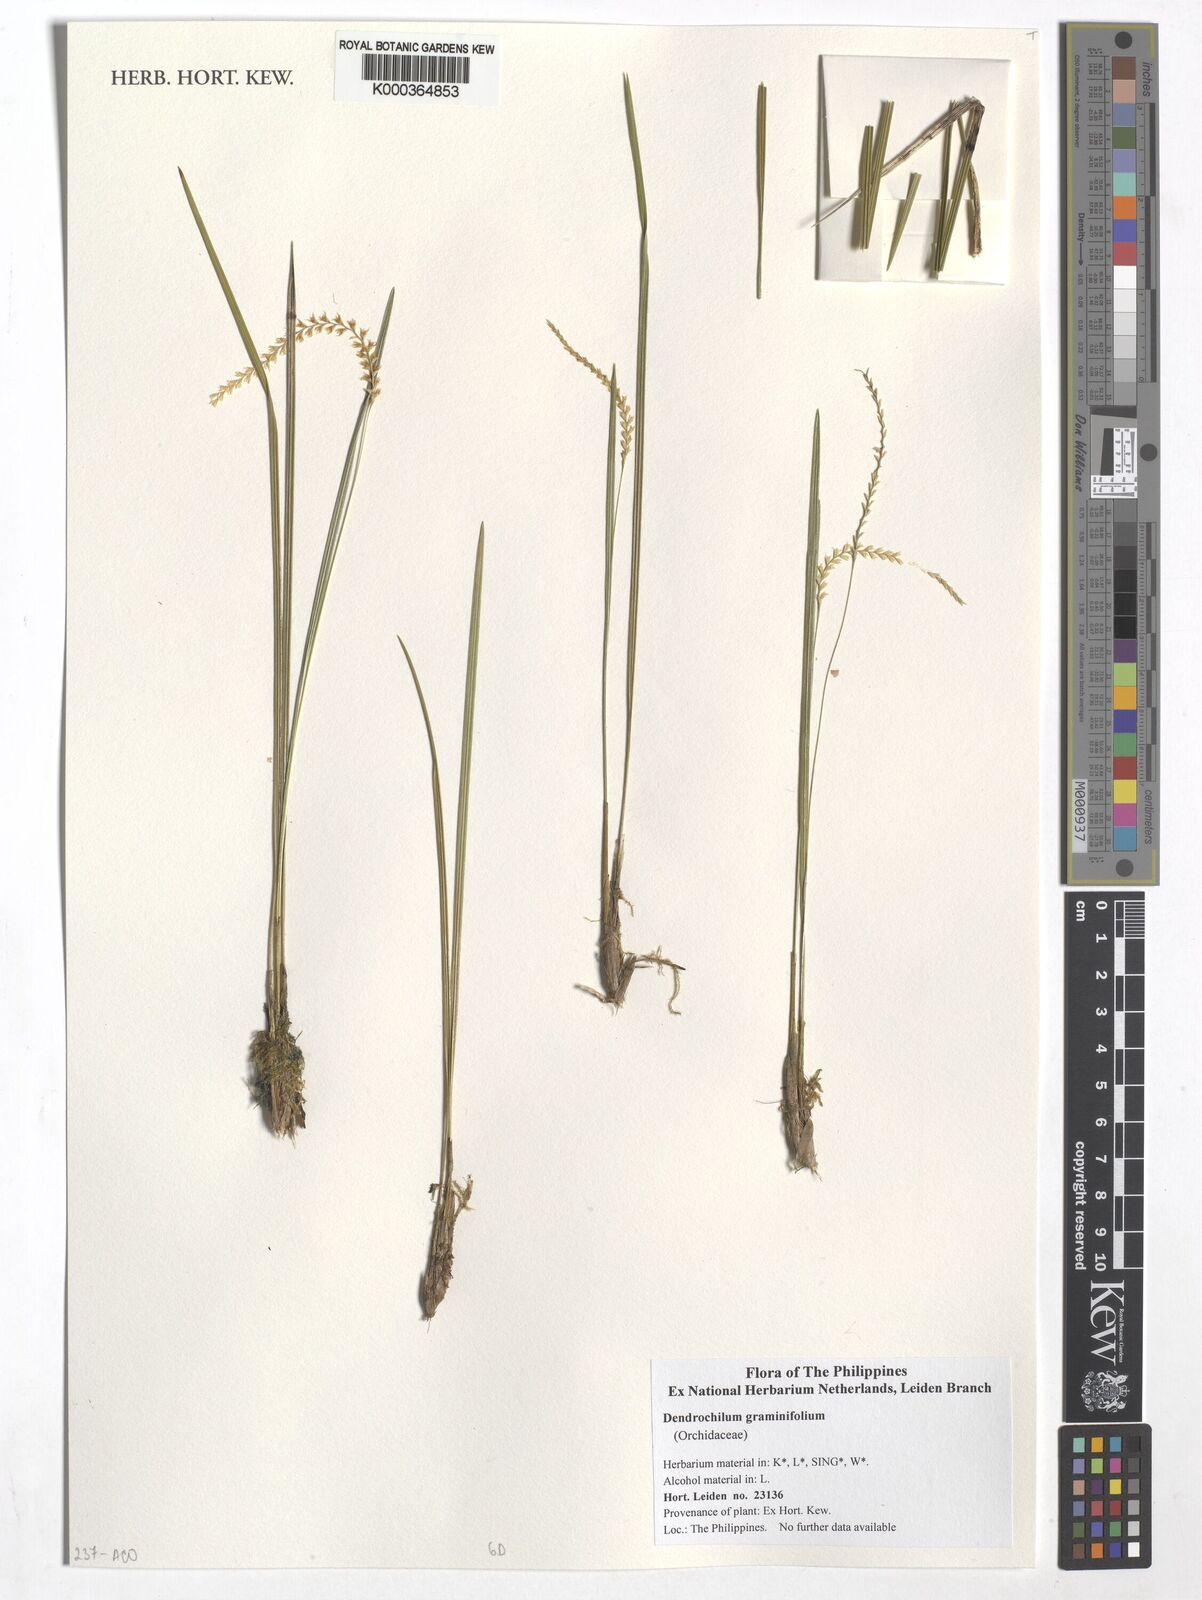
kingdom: Plantae
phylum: Tracheophyta
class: Liliopsida
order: Asparagales
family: Orchidaceae
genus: Coelogyne
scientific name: Coelogyne benguetensis
